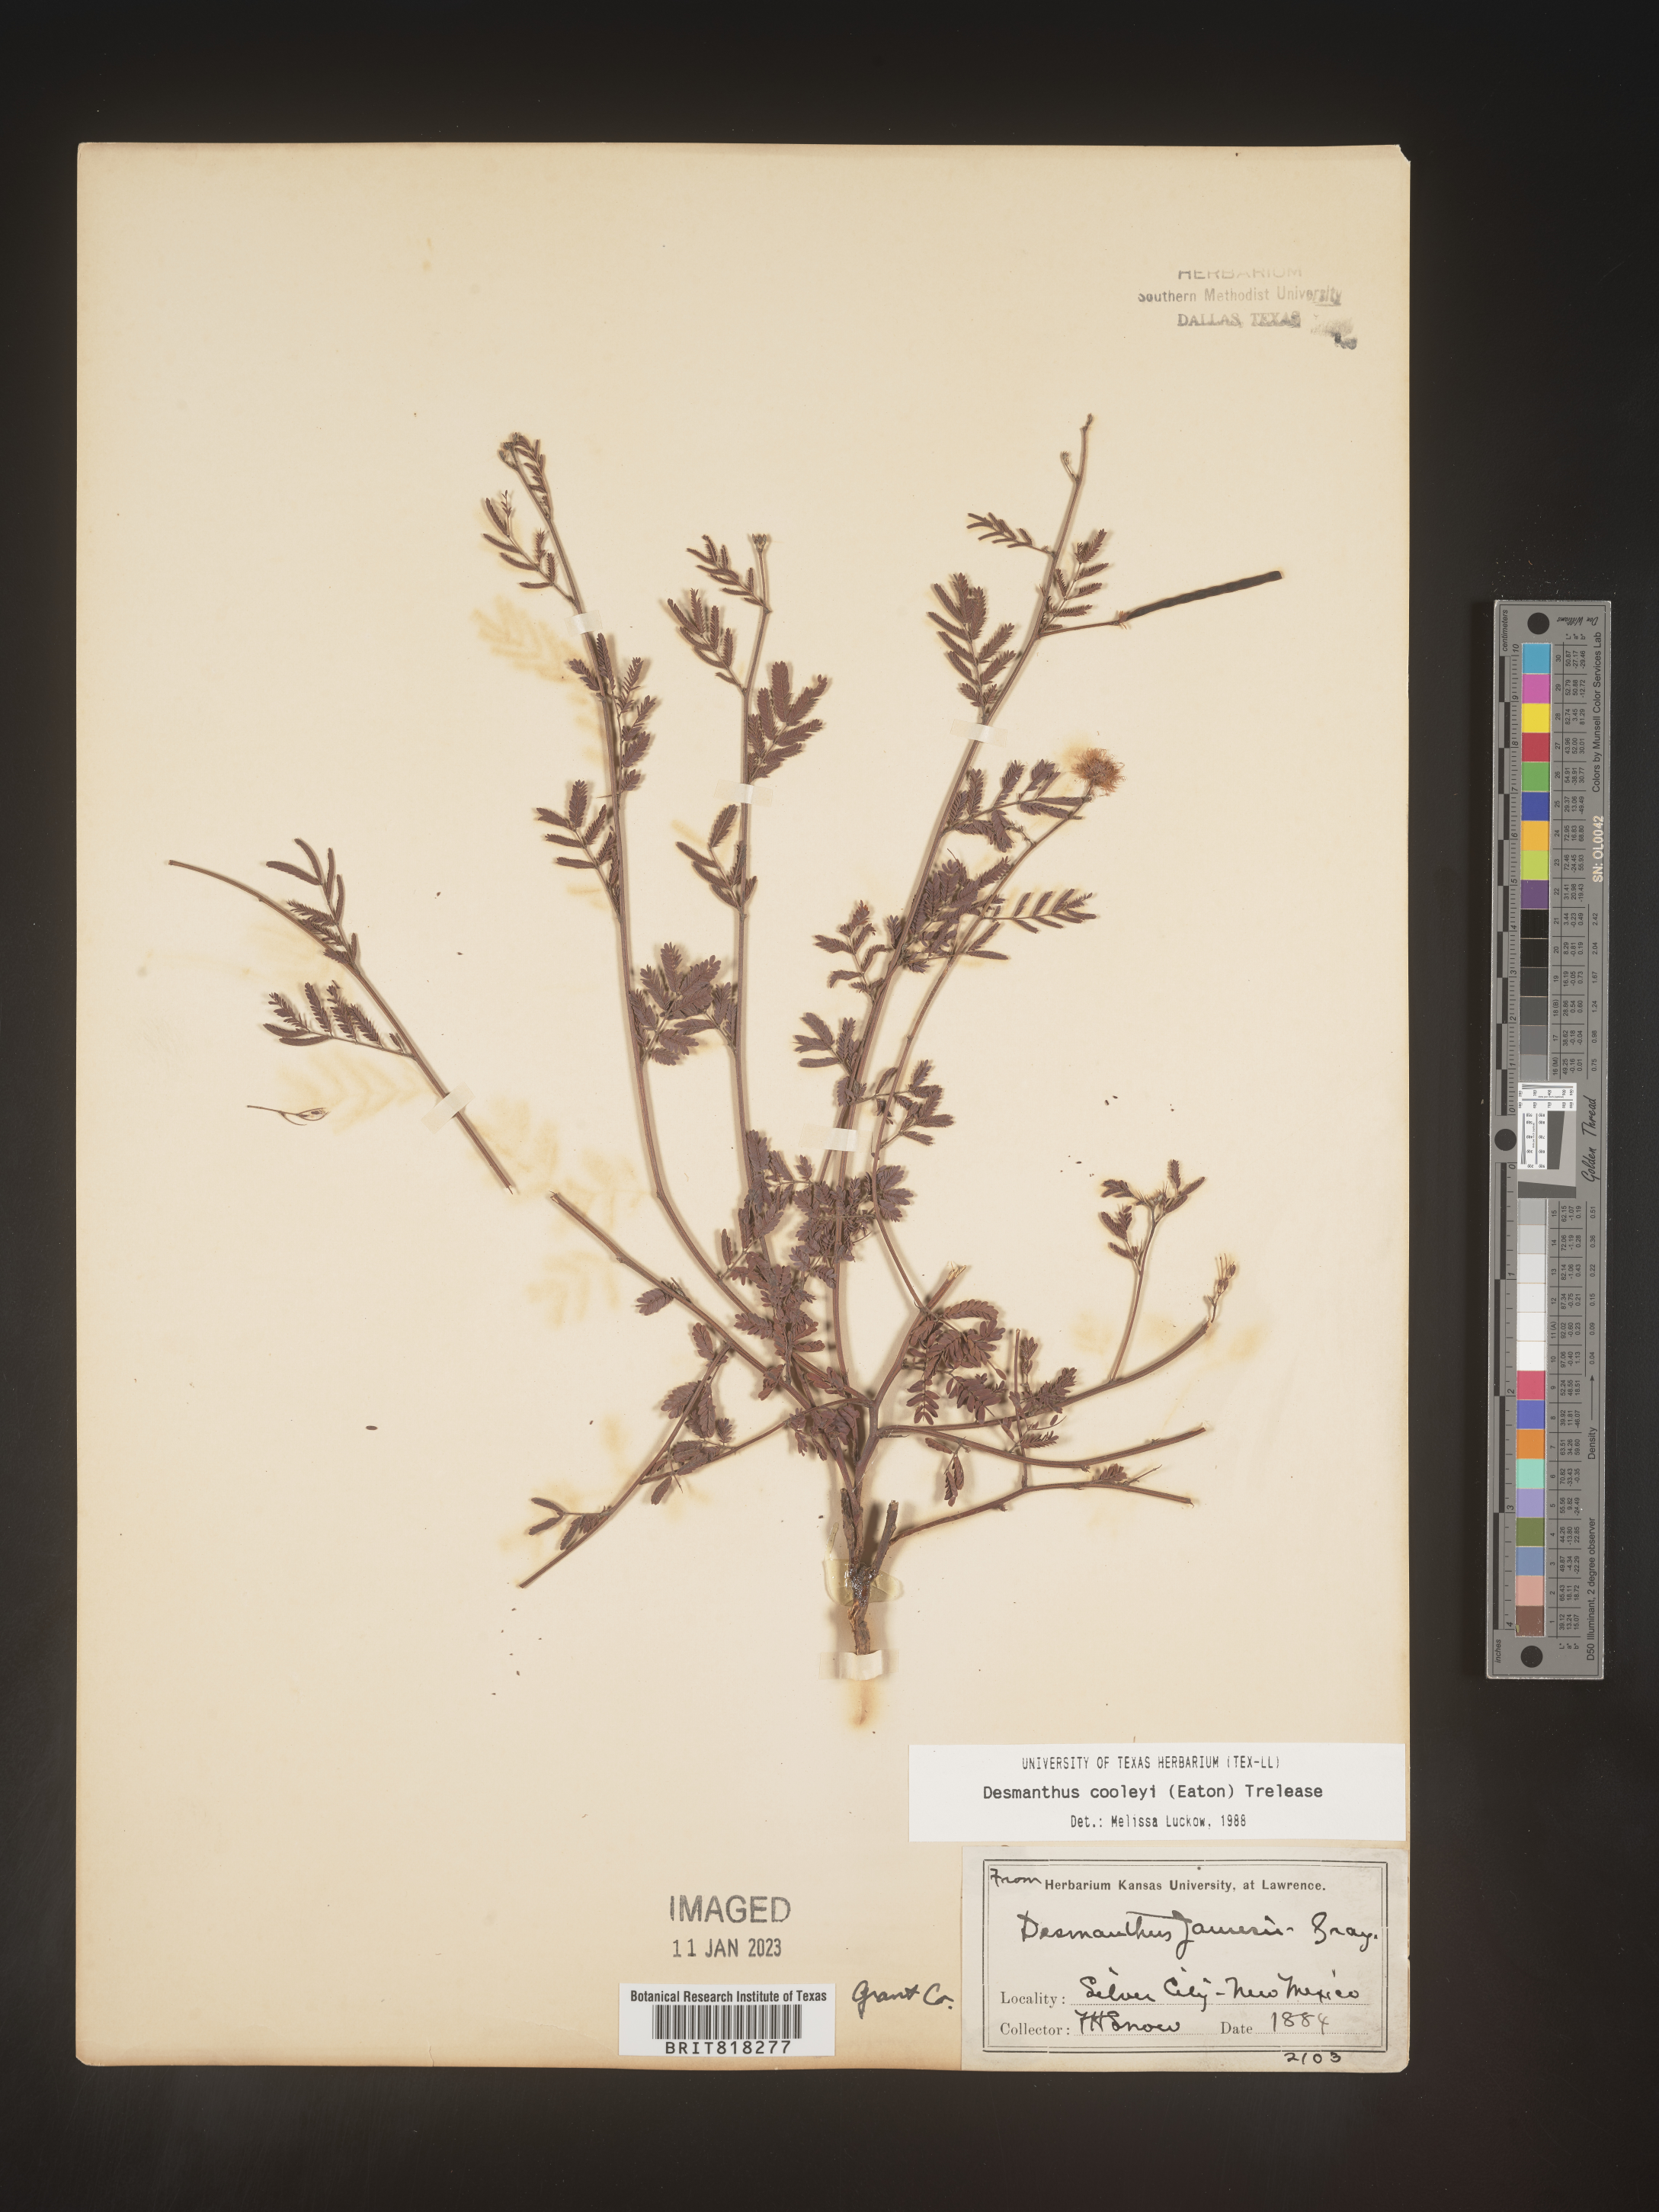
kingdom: Plantae
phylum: Tracheophyta
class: Magnoliopsida
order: Fabales
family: Fabaceae
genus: Desmanthus
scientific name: Desmanthus cooleyi
